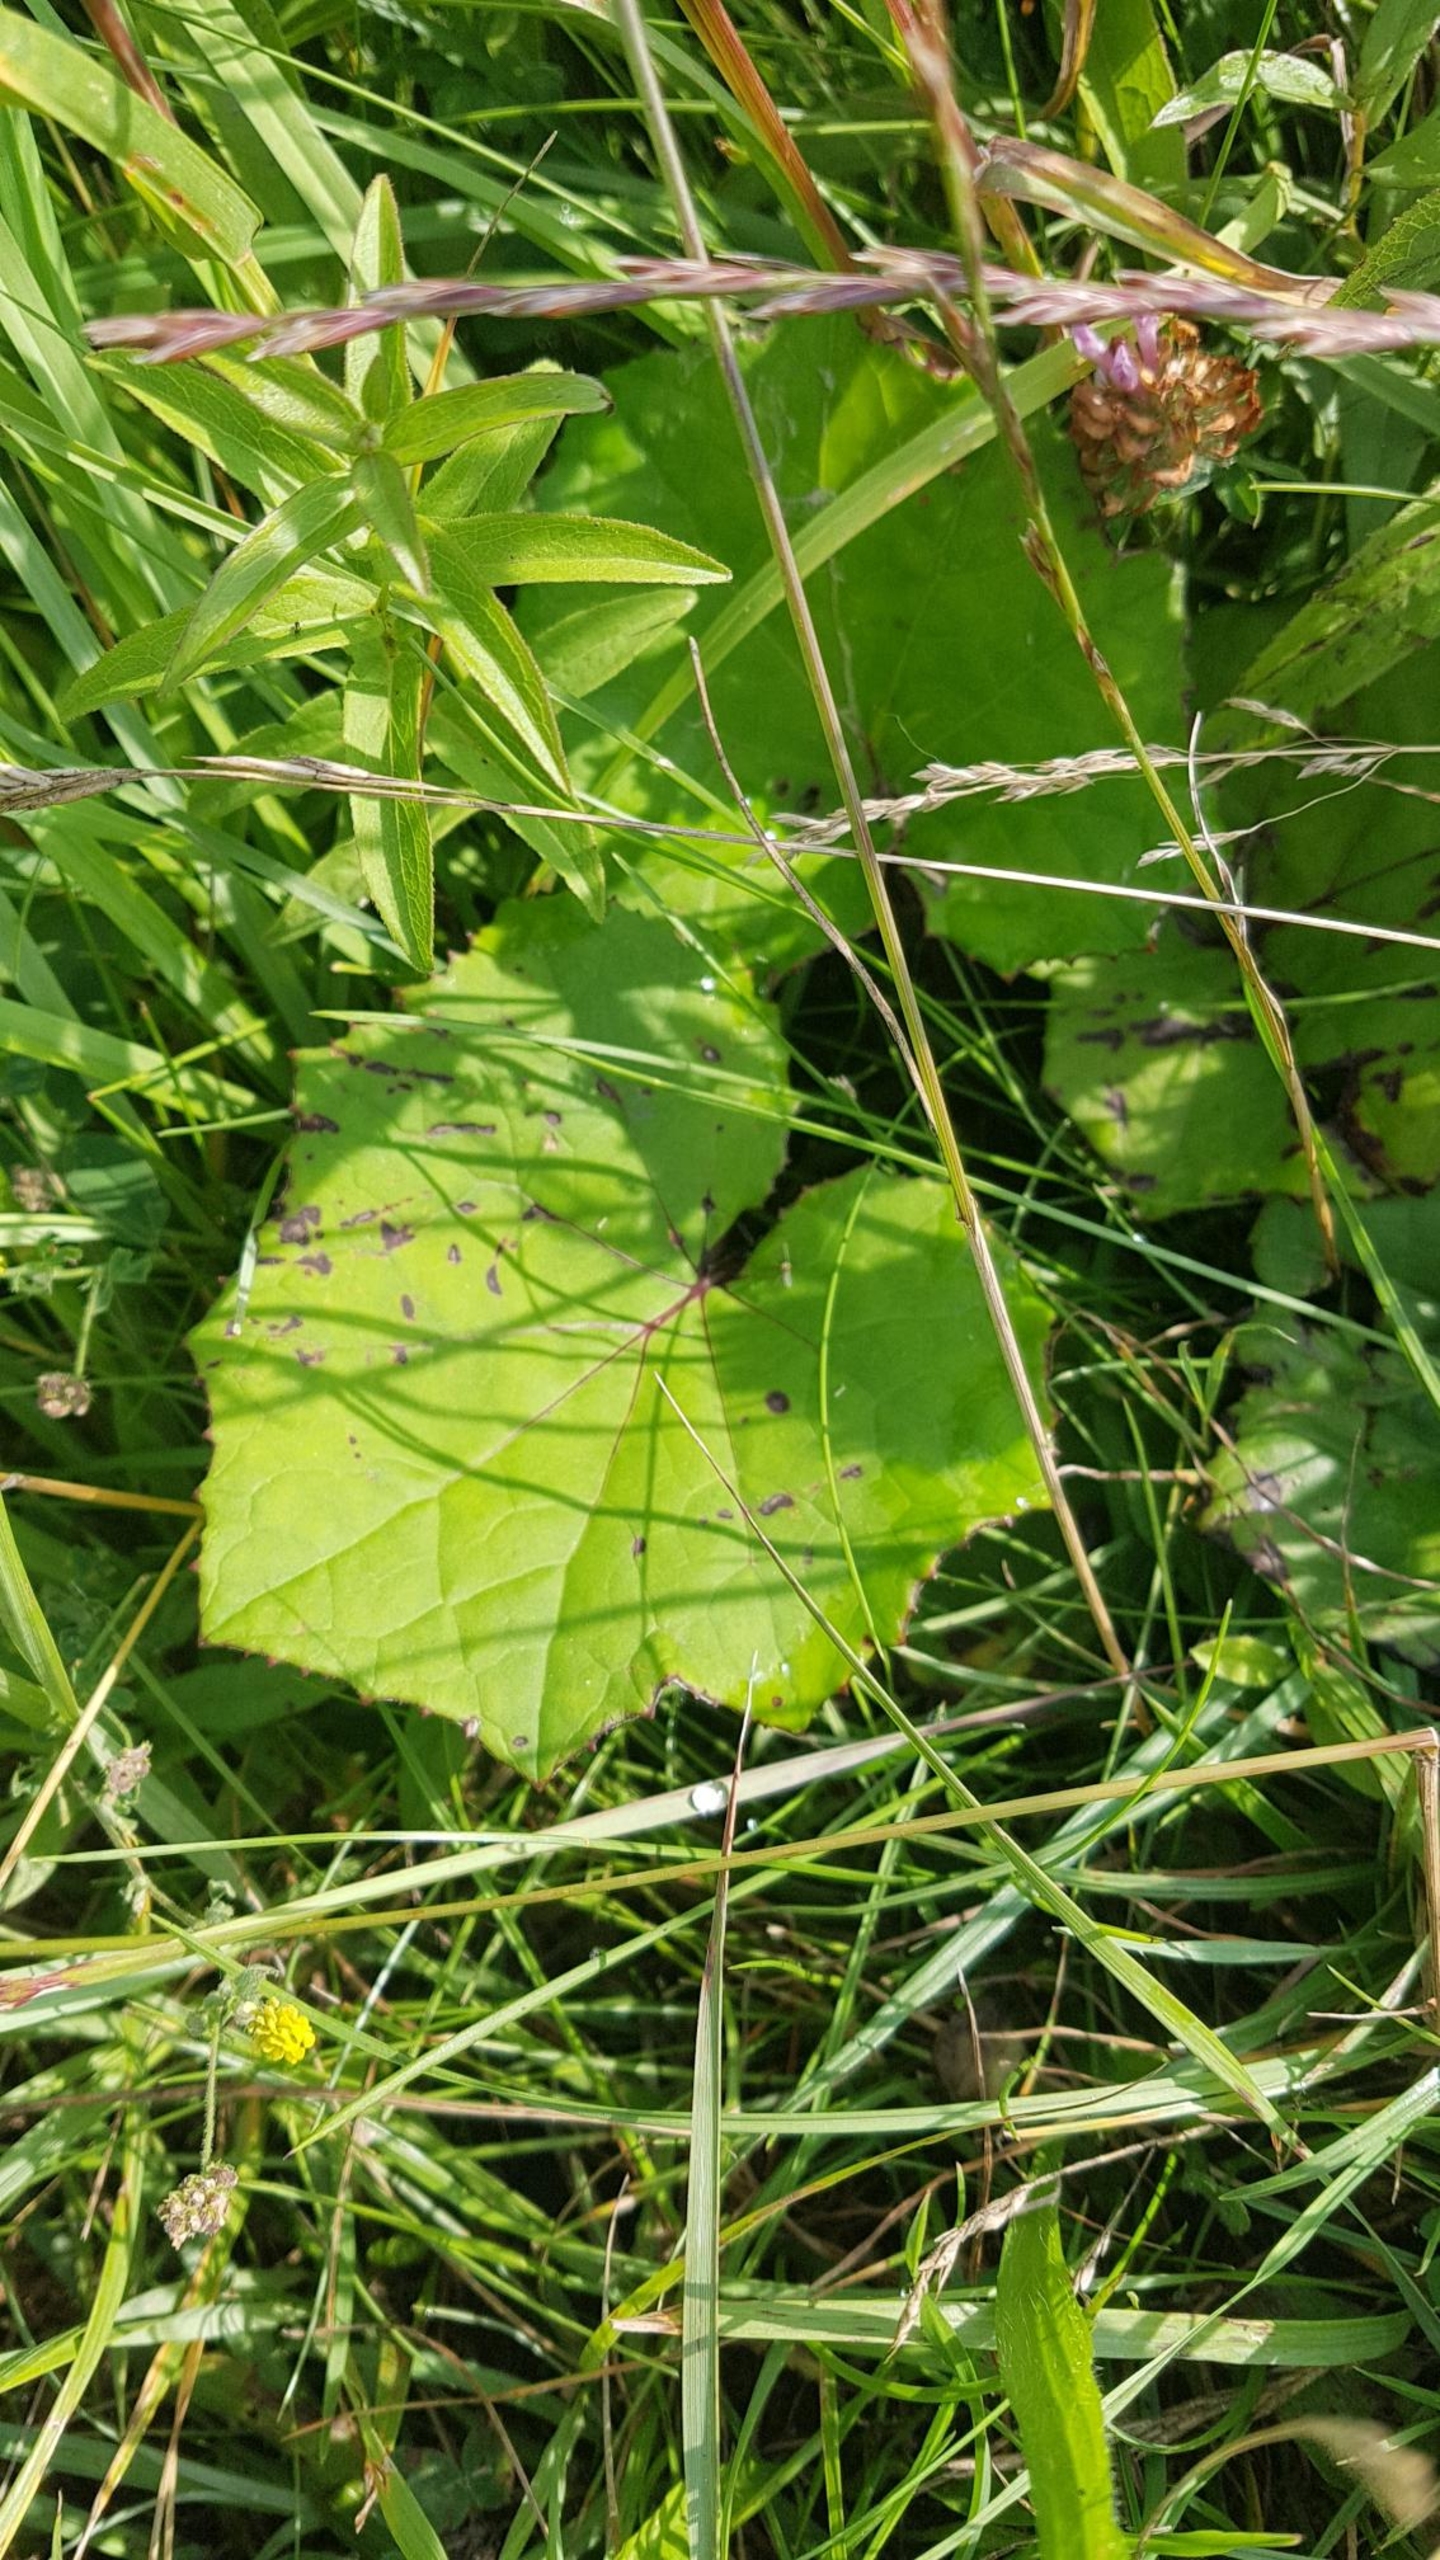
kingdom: Plantae
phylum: Tracheophyta
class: Magnoliopsida
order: Asterales
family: Asteraceae
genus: Tussilago
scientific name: Tussilago farfara
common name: Følfod
